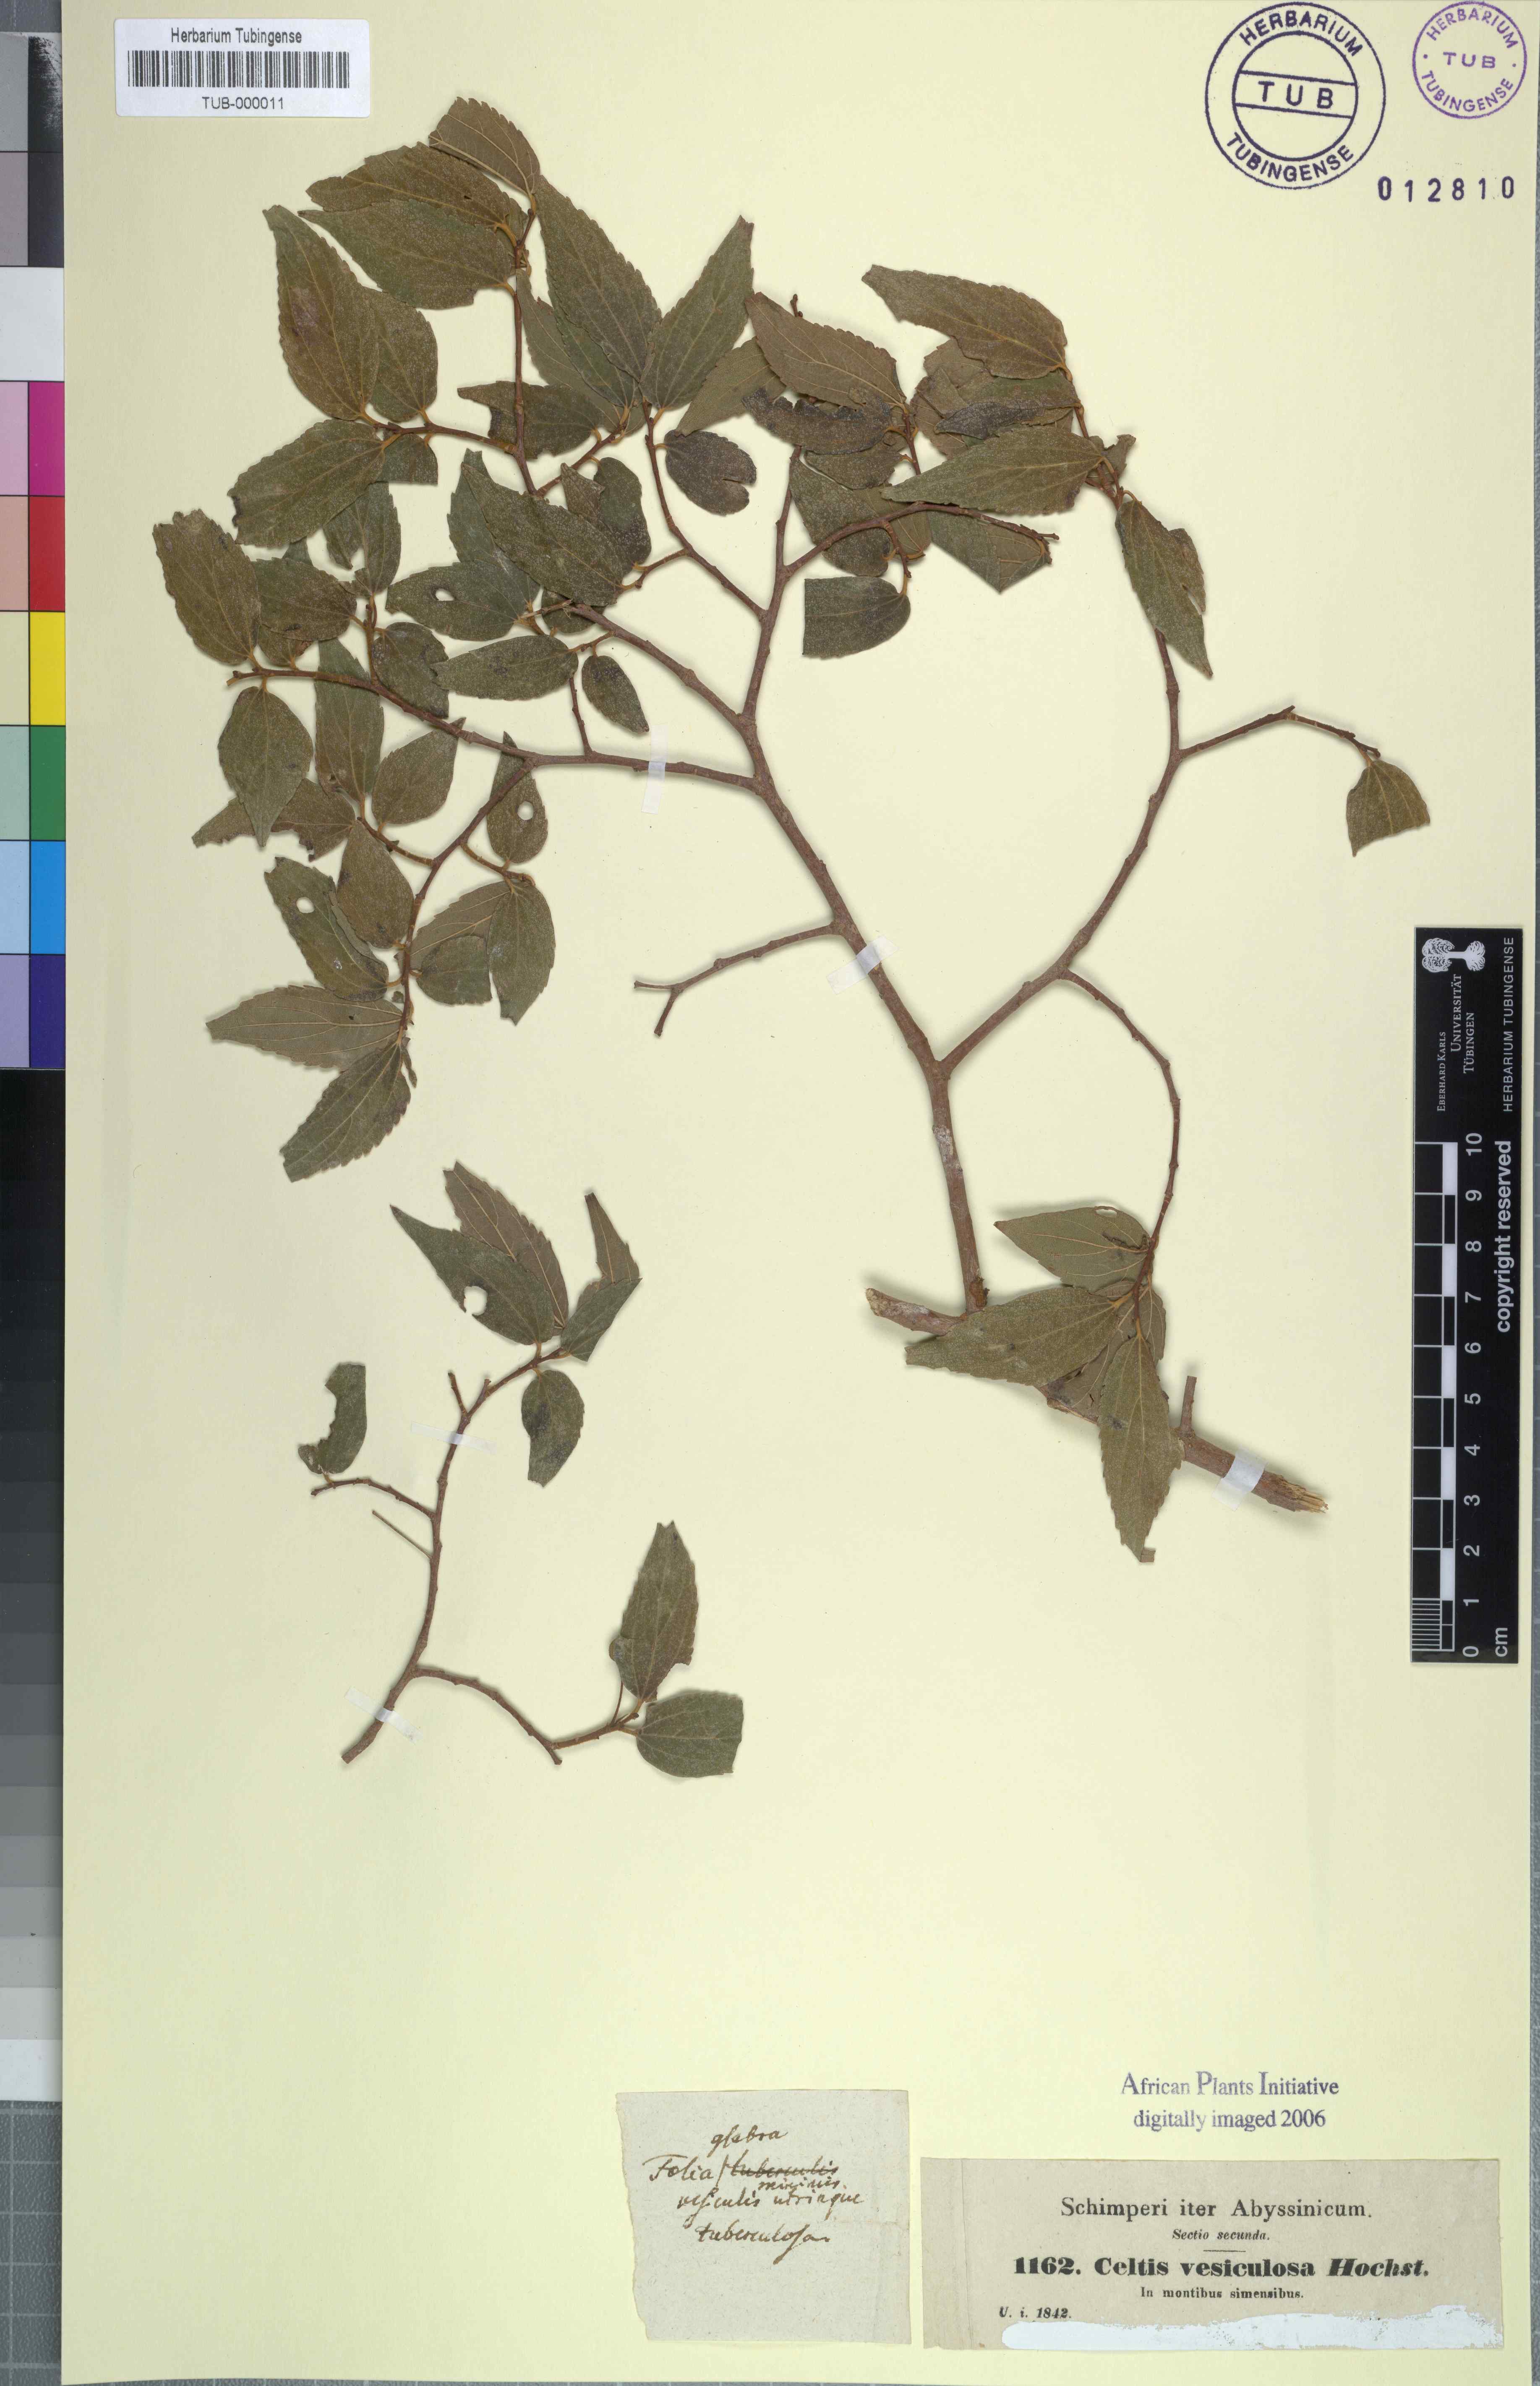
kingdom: Plantae
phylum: Tracheophyta
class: Magnoliopsida
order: Rosales
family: Cannabaceae
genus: Celtis
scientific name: Celtis africana
